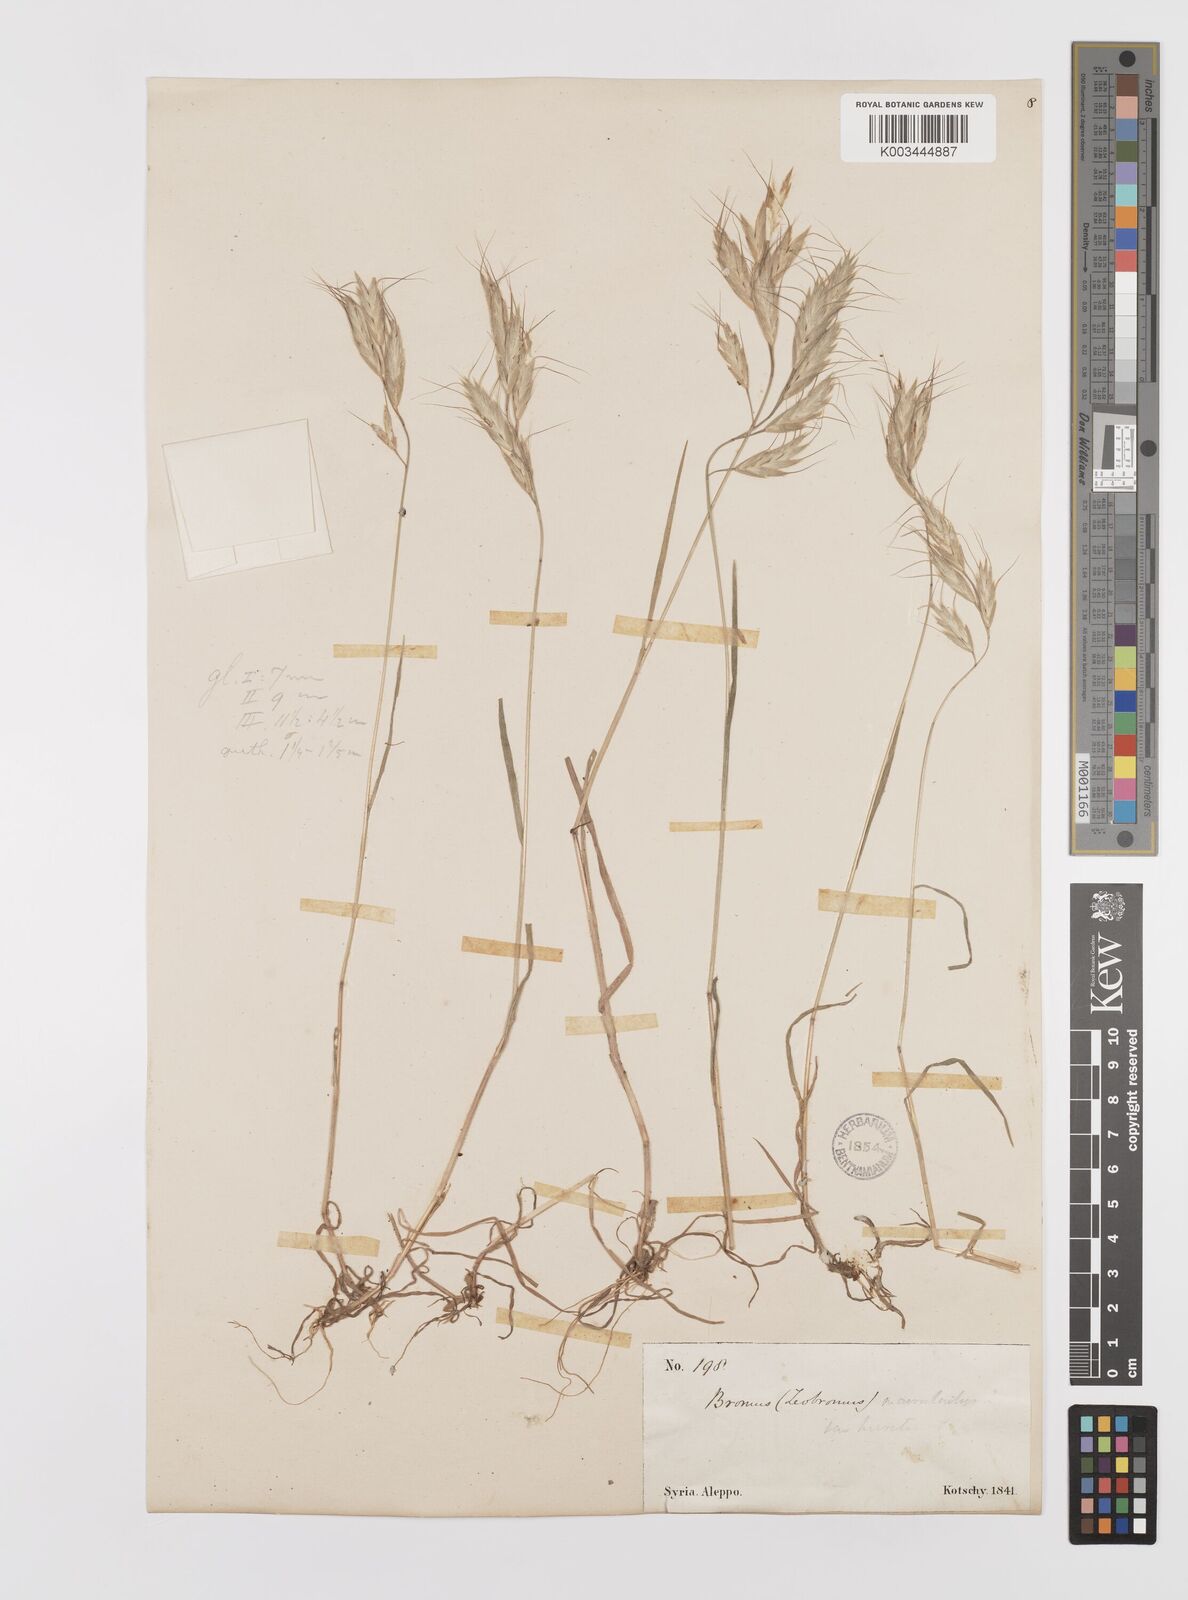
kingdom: Plantae
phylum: Tracheophyta
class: Liliopsida
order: Poales
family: Poaceae
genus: Bromus
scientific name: Bromus lanceolatus
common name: Mediterranean brome
